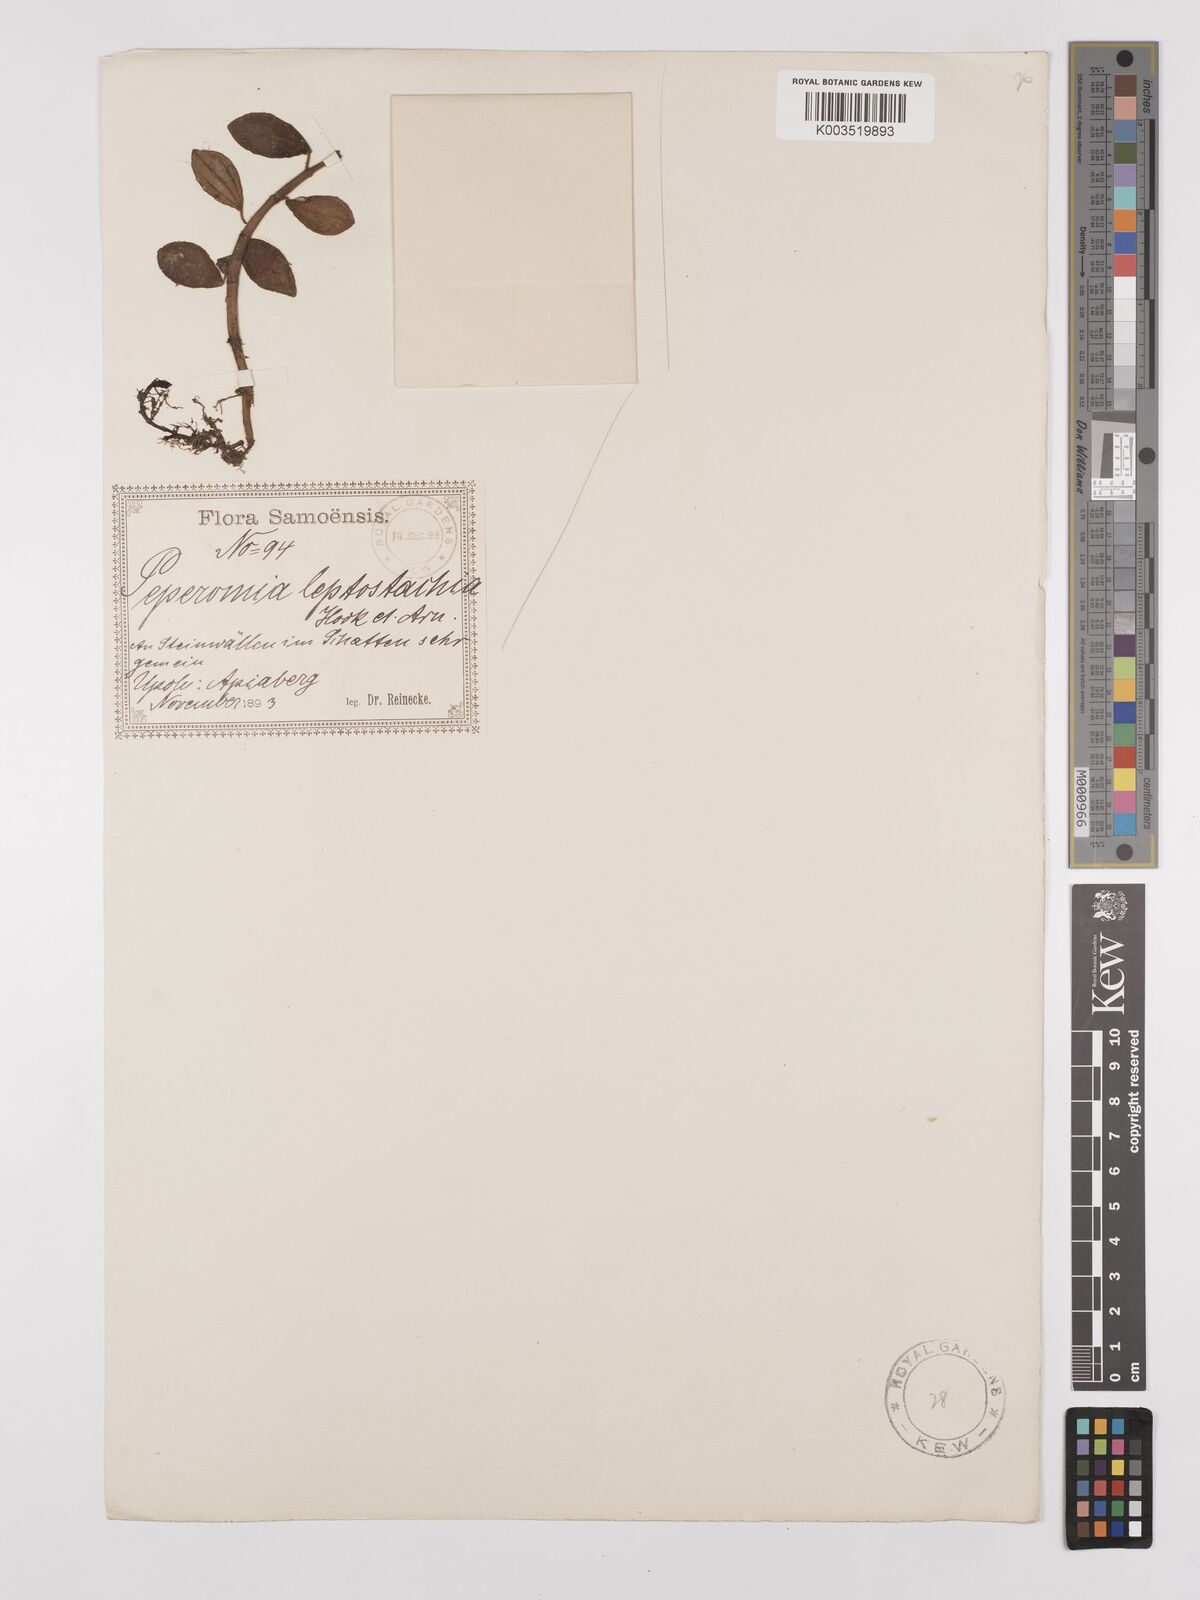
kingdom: Plantae
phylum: Tracheophyta
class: Magnoliopsida
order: Piperales
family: Piperaceae
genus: Peperomia
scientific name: Peperomia leptostachya
